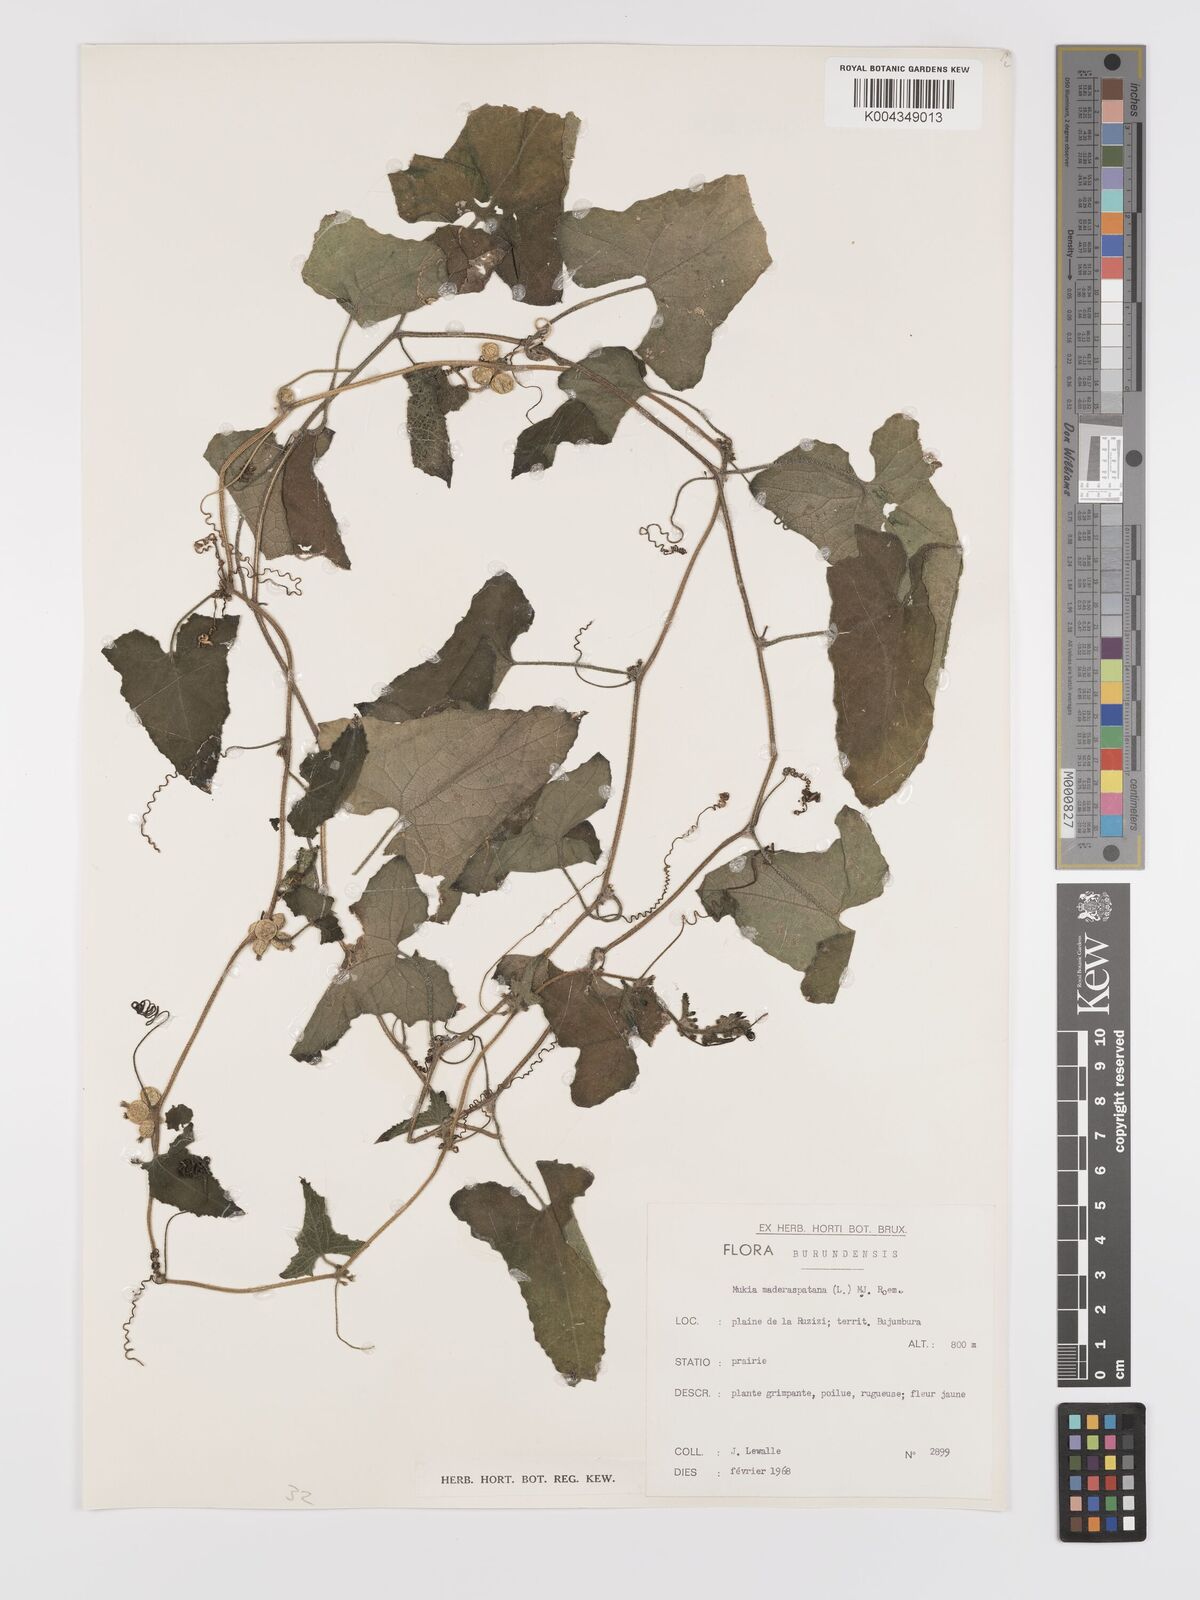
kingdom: Plantae
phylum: Tracheophyta
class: Magnoliopsida
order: Cucurbitales
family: Cucurbitaceae
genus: Cucumis
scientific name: Cucumis maderaspatanus
